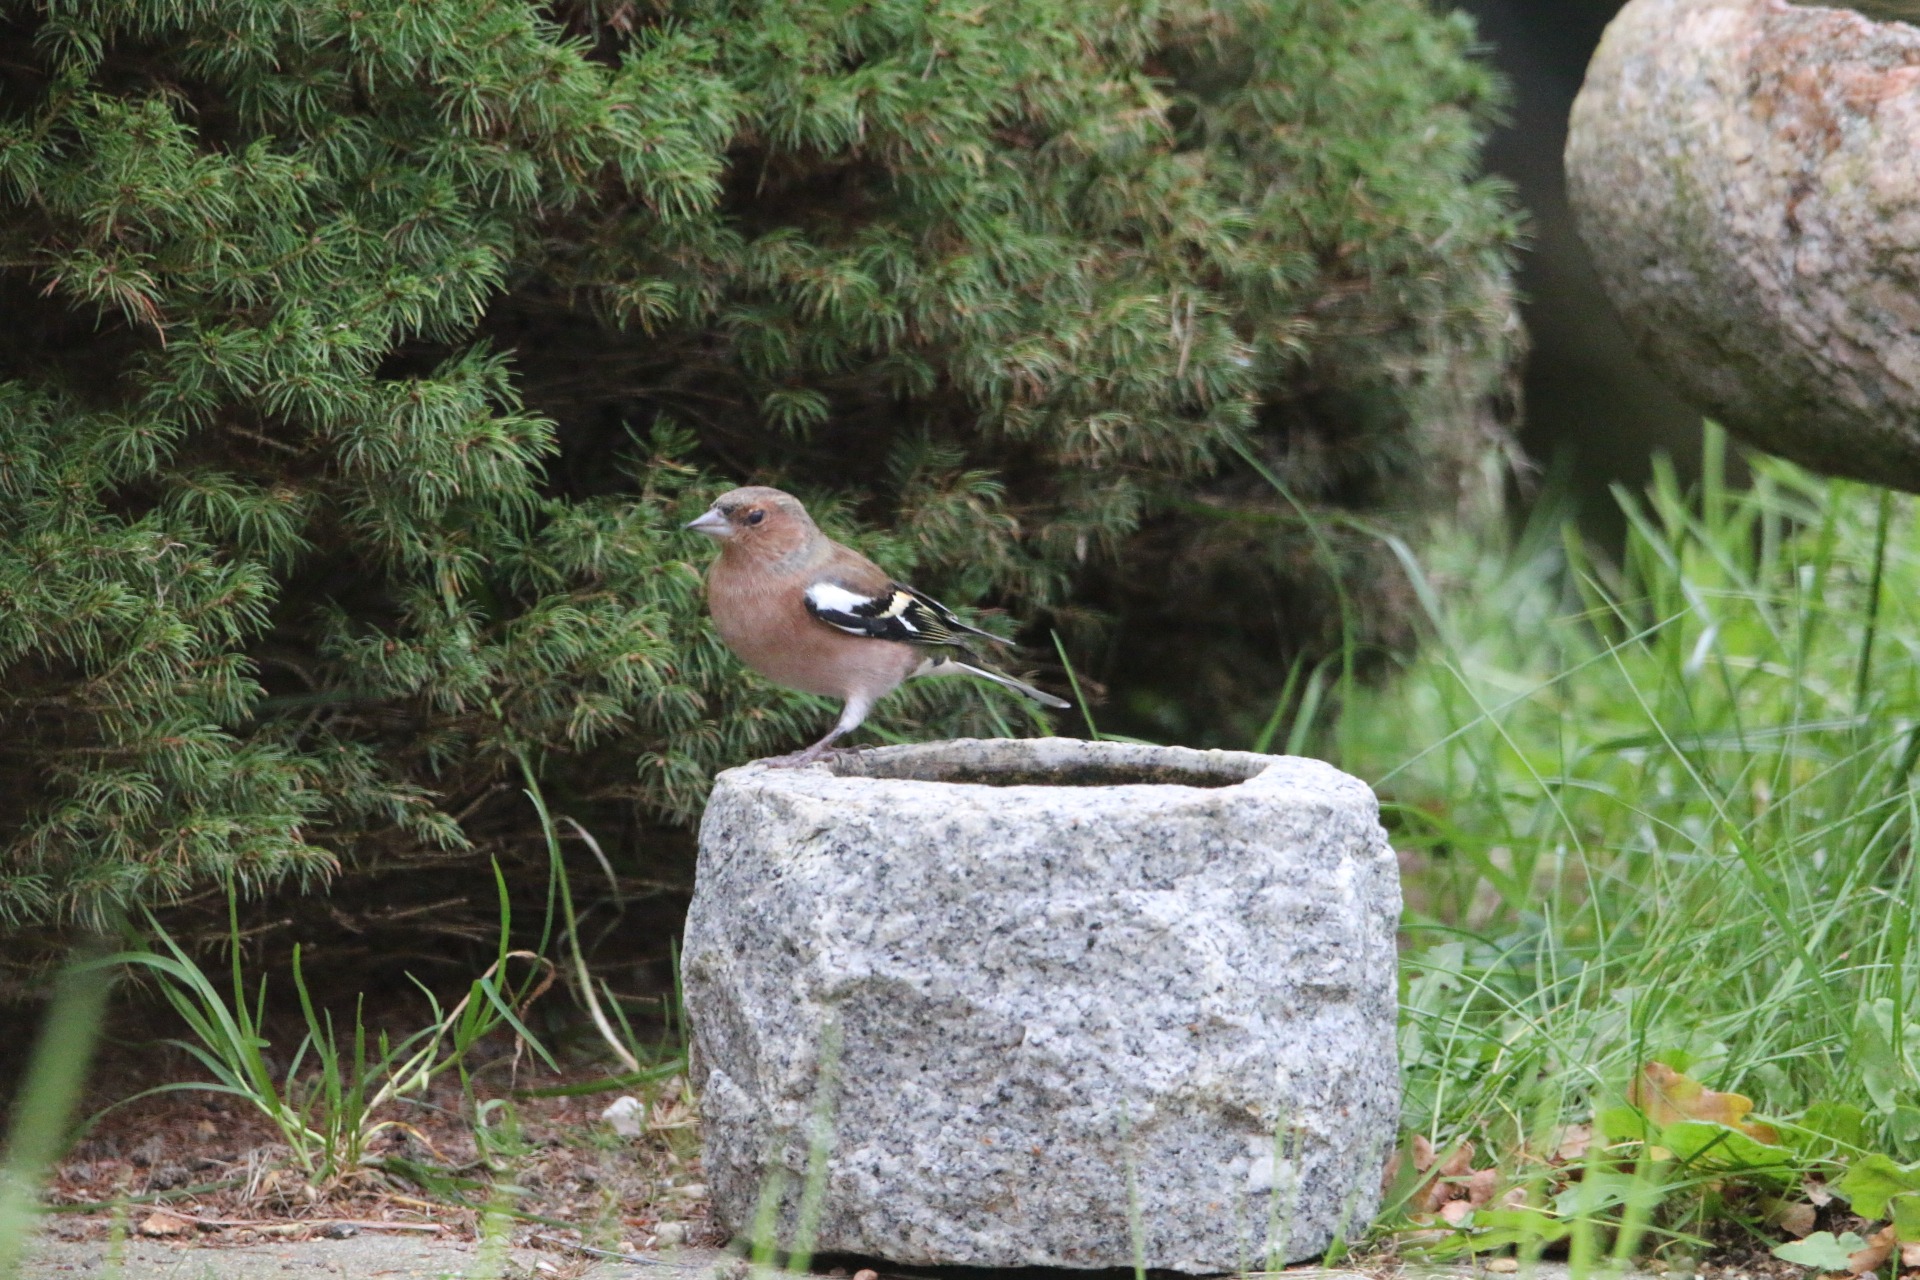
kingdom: Animalia
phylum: Chordata
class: Aves
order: Passeriformes
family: Fringillidae
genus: Fringilla
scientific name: Fringilla coelebs
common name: Bogfinke
